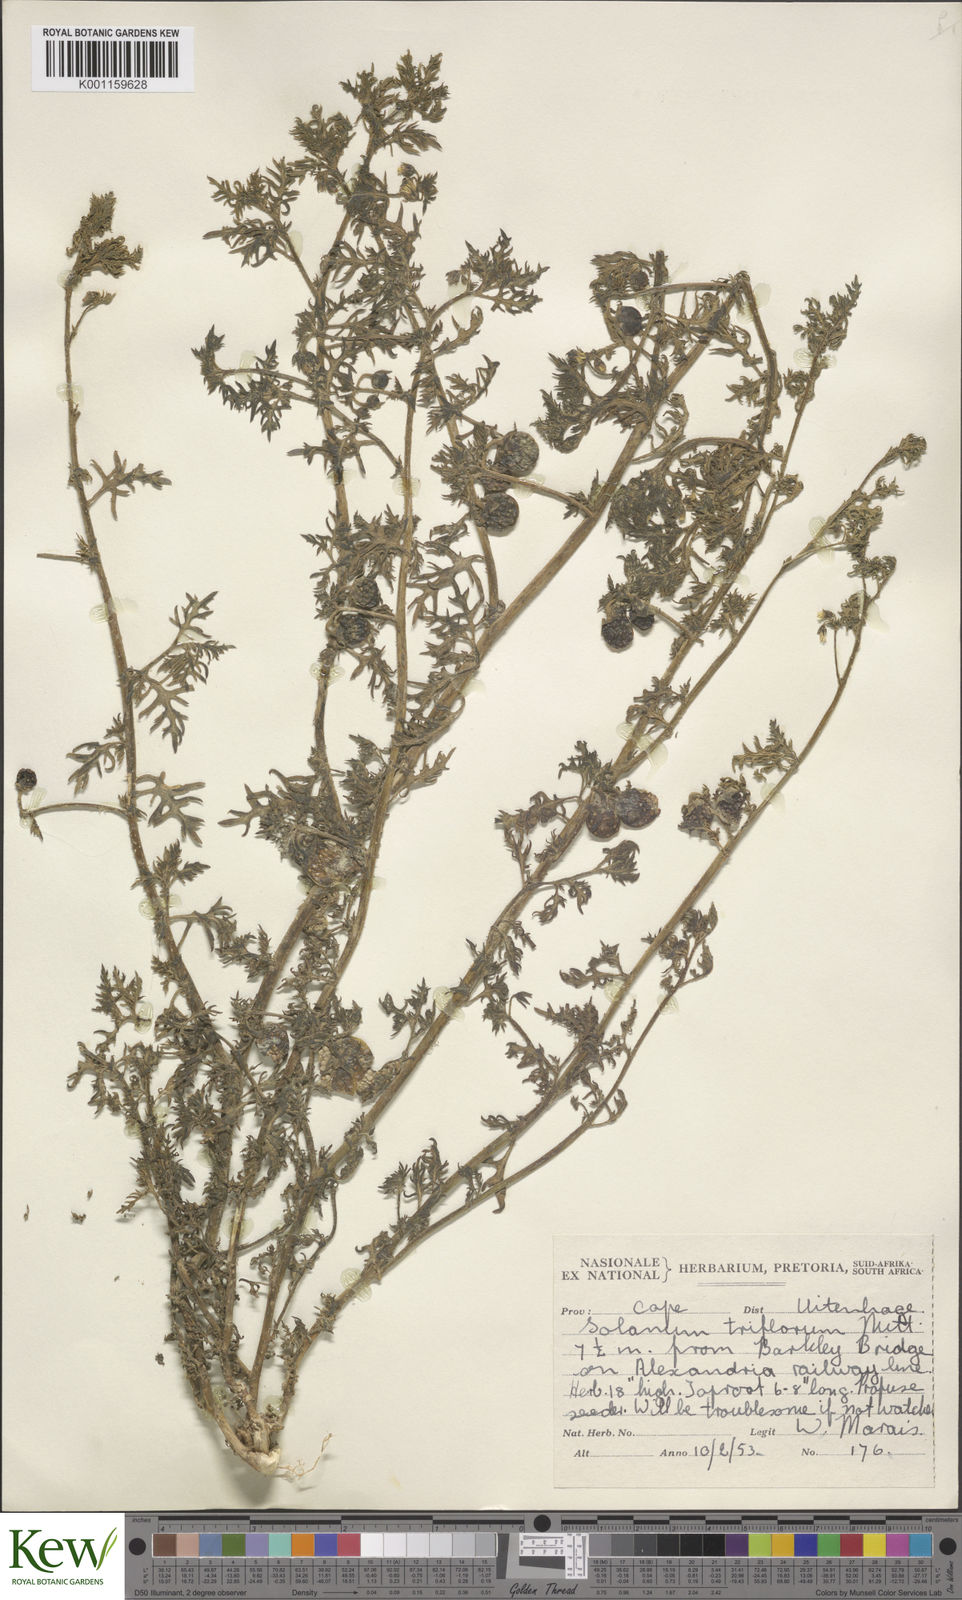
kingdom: Plantae
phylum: Tracheophyta
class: Magnoliopsida
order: Solanales
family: Solanaceae
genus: Solanum
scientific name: Solanum triflorum
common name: Small nightshade
